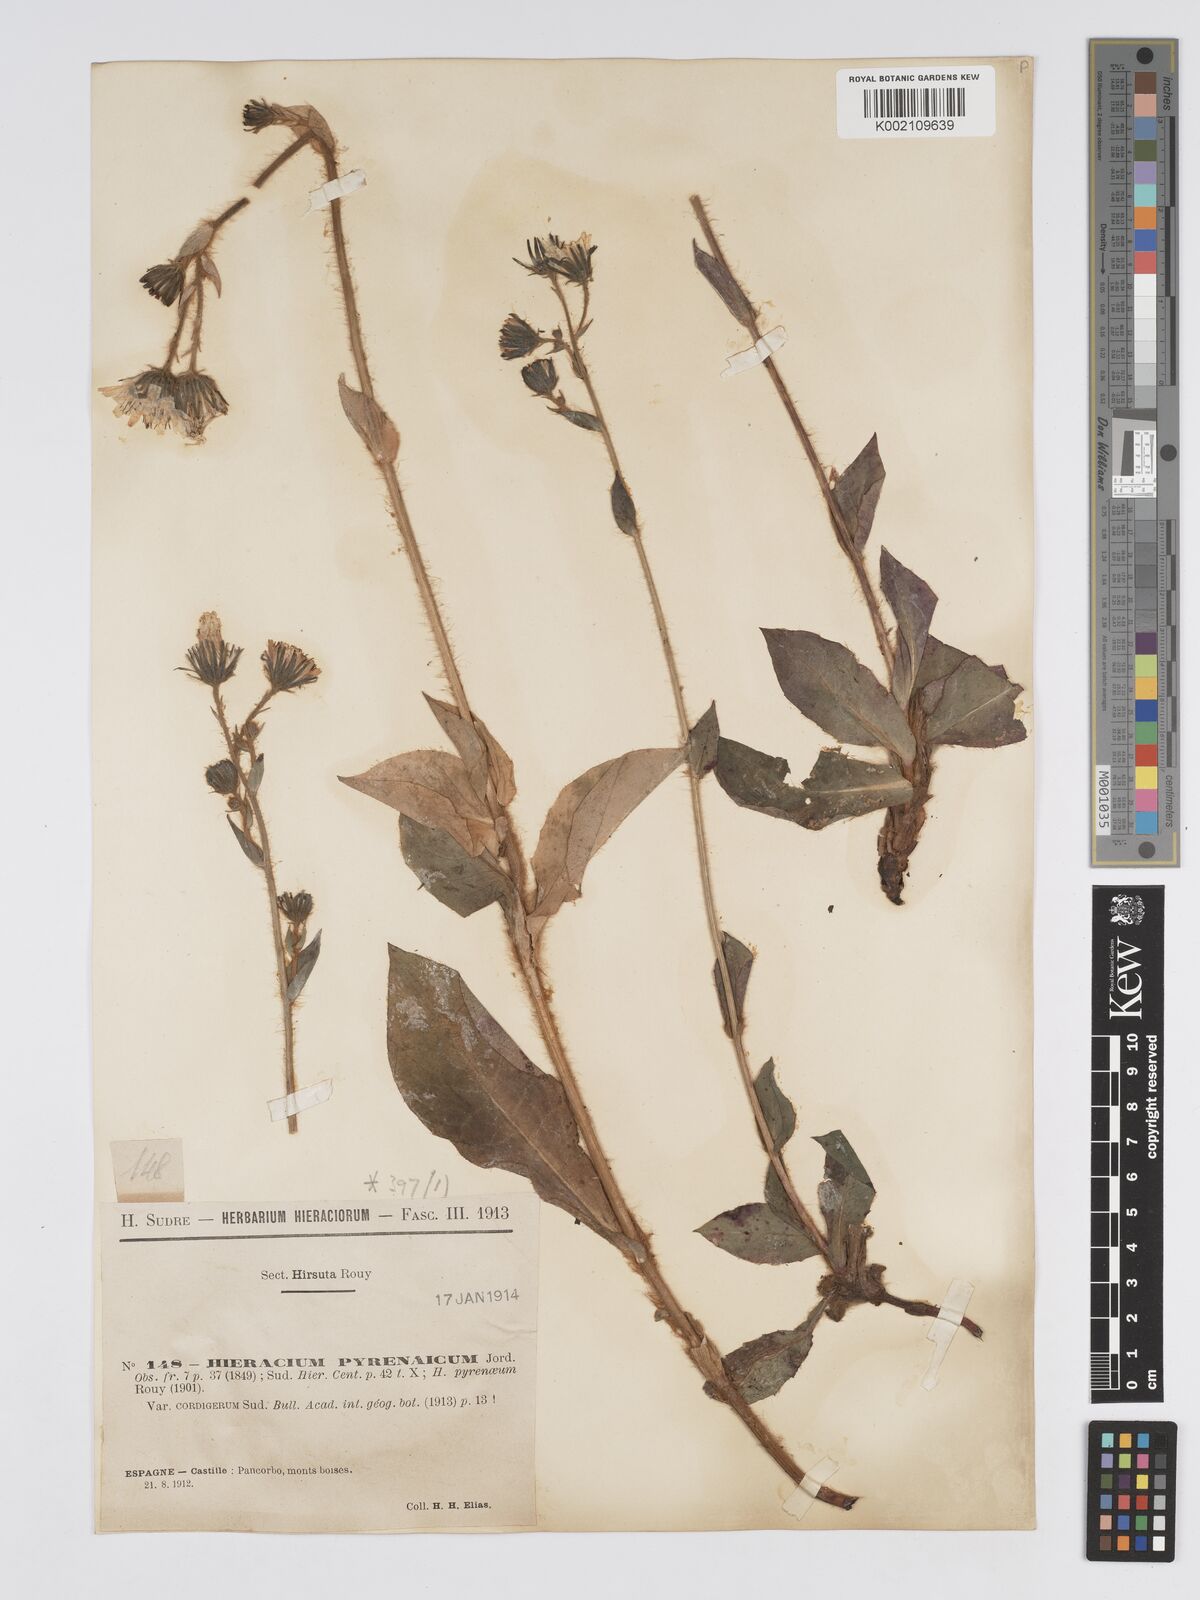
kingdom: Plantae
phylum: Tracheophyta
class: Magnoliopsida
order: Asterales
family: Asteraceae
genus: Hieracium
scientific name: Hieracium nobile
